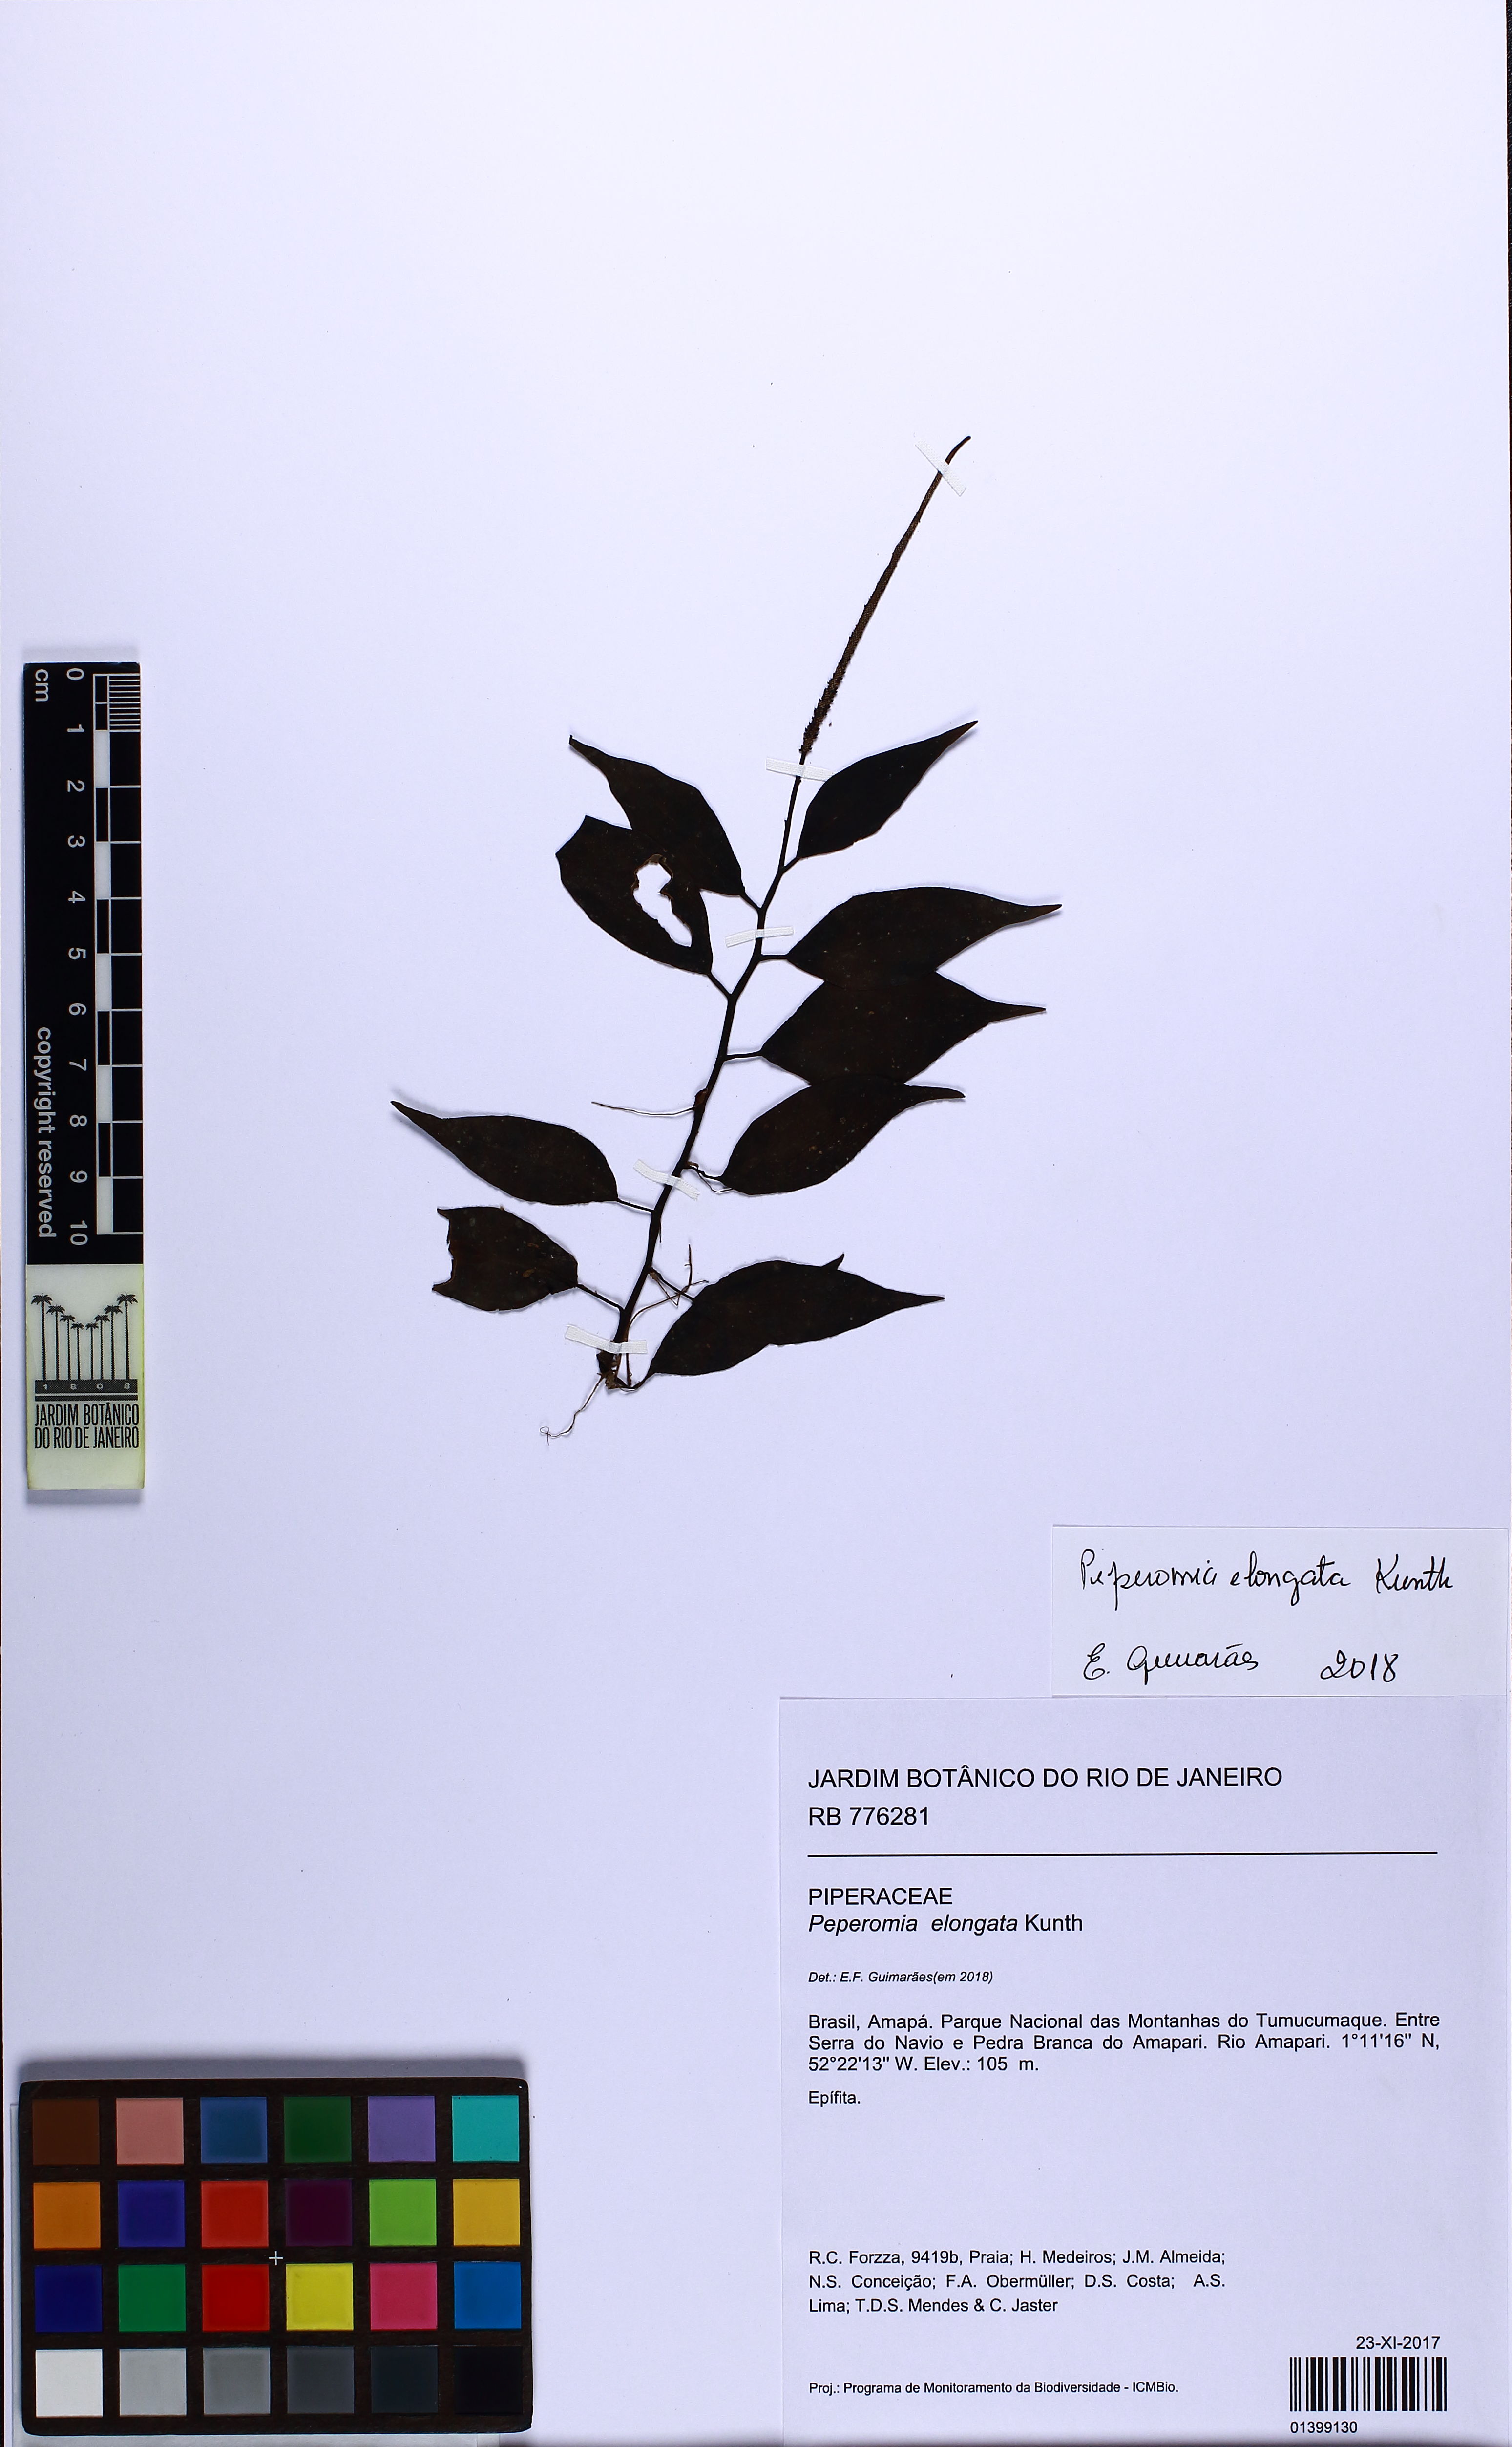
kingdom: Plantae
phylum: Tracheophyta
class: Magnoliopsida
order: Piperales
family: Piperaceae
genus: Peperomia
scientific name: Peperomia elongata
